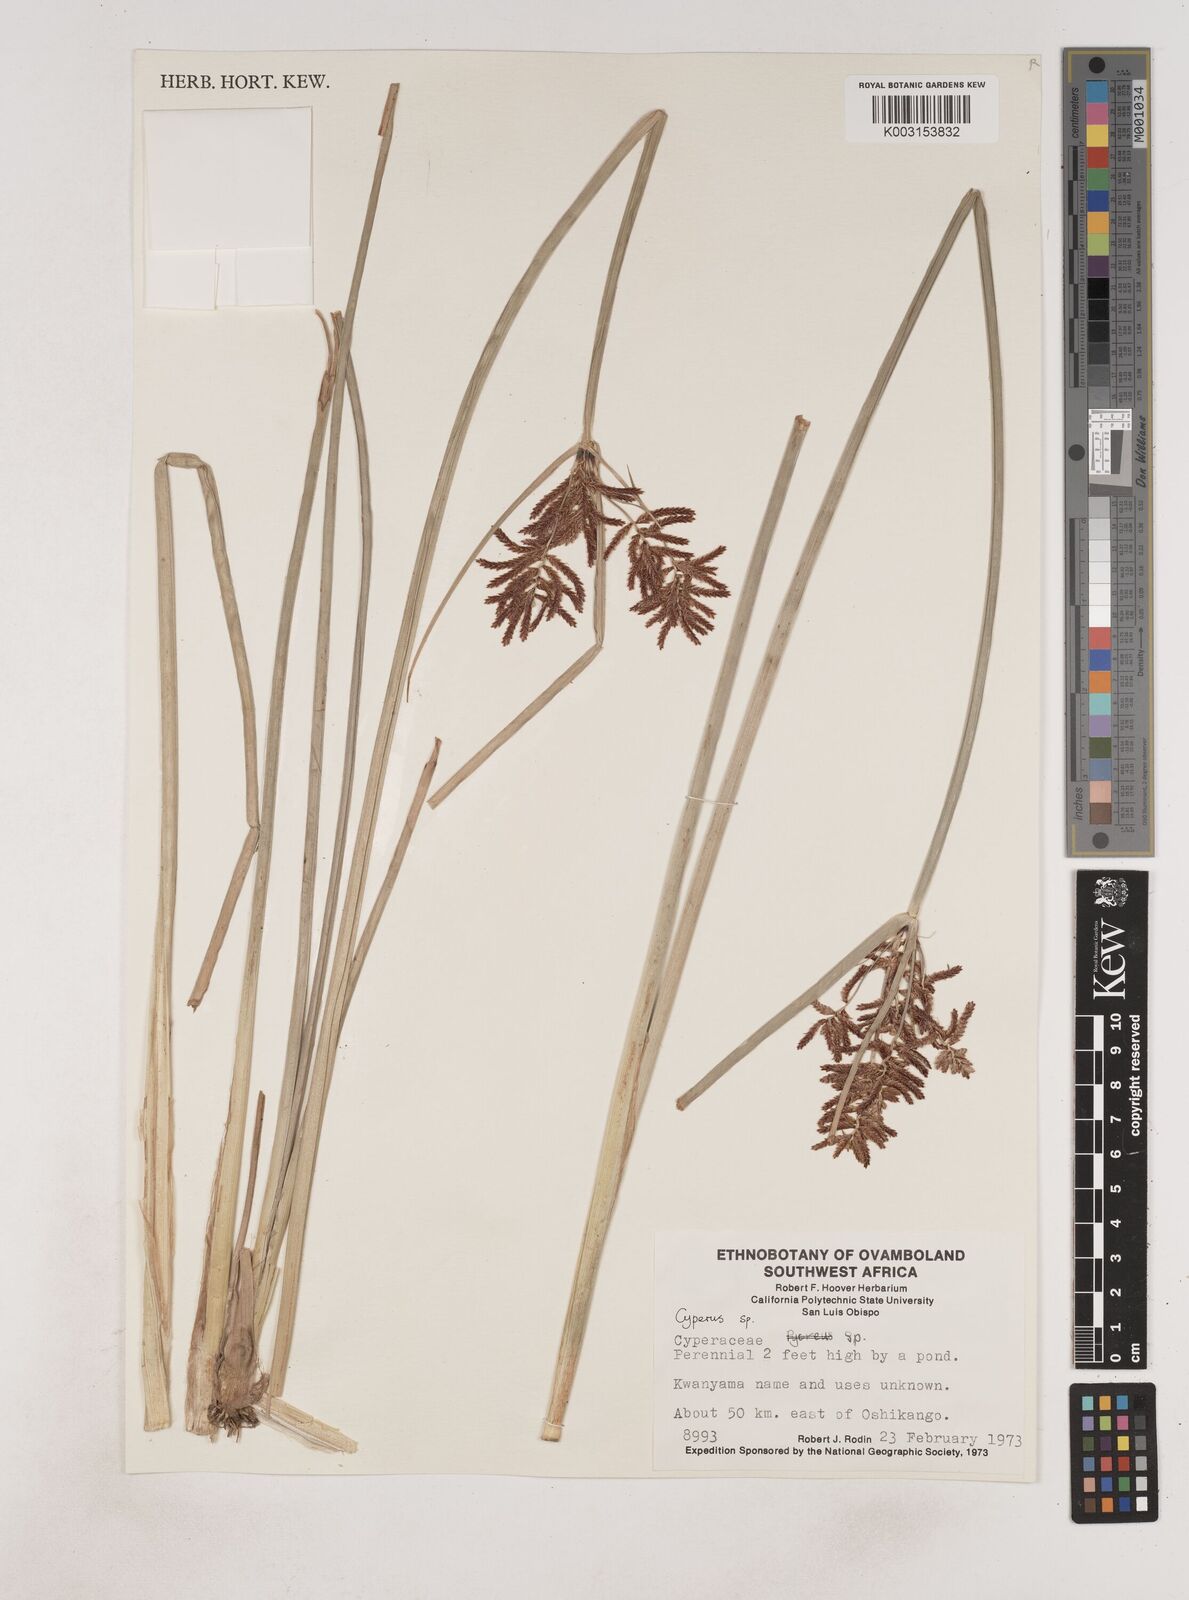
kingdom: Plantae
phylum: Tracheophyta
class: Liliopsida
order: Poales
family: Cyperaceae
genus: Cyperus
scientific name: Cyperus
